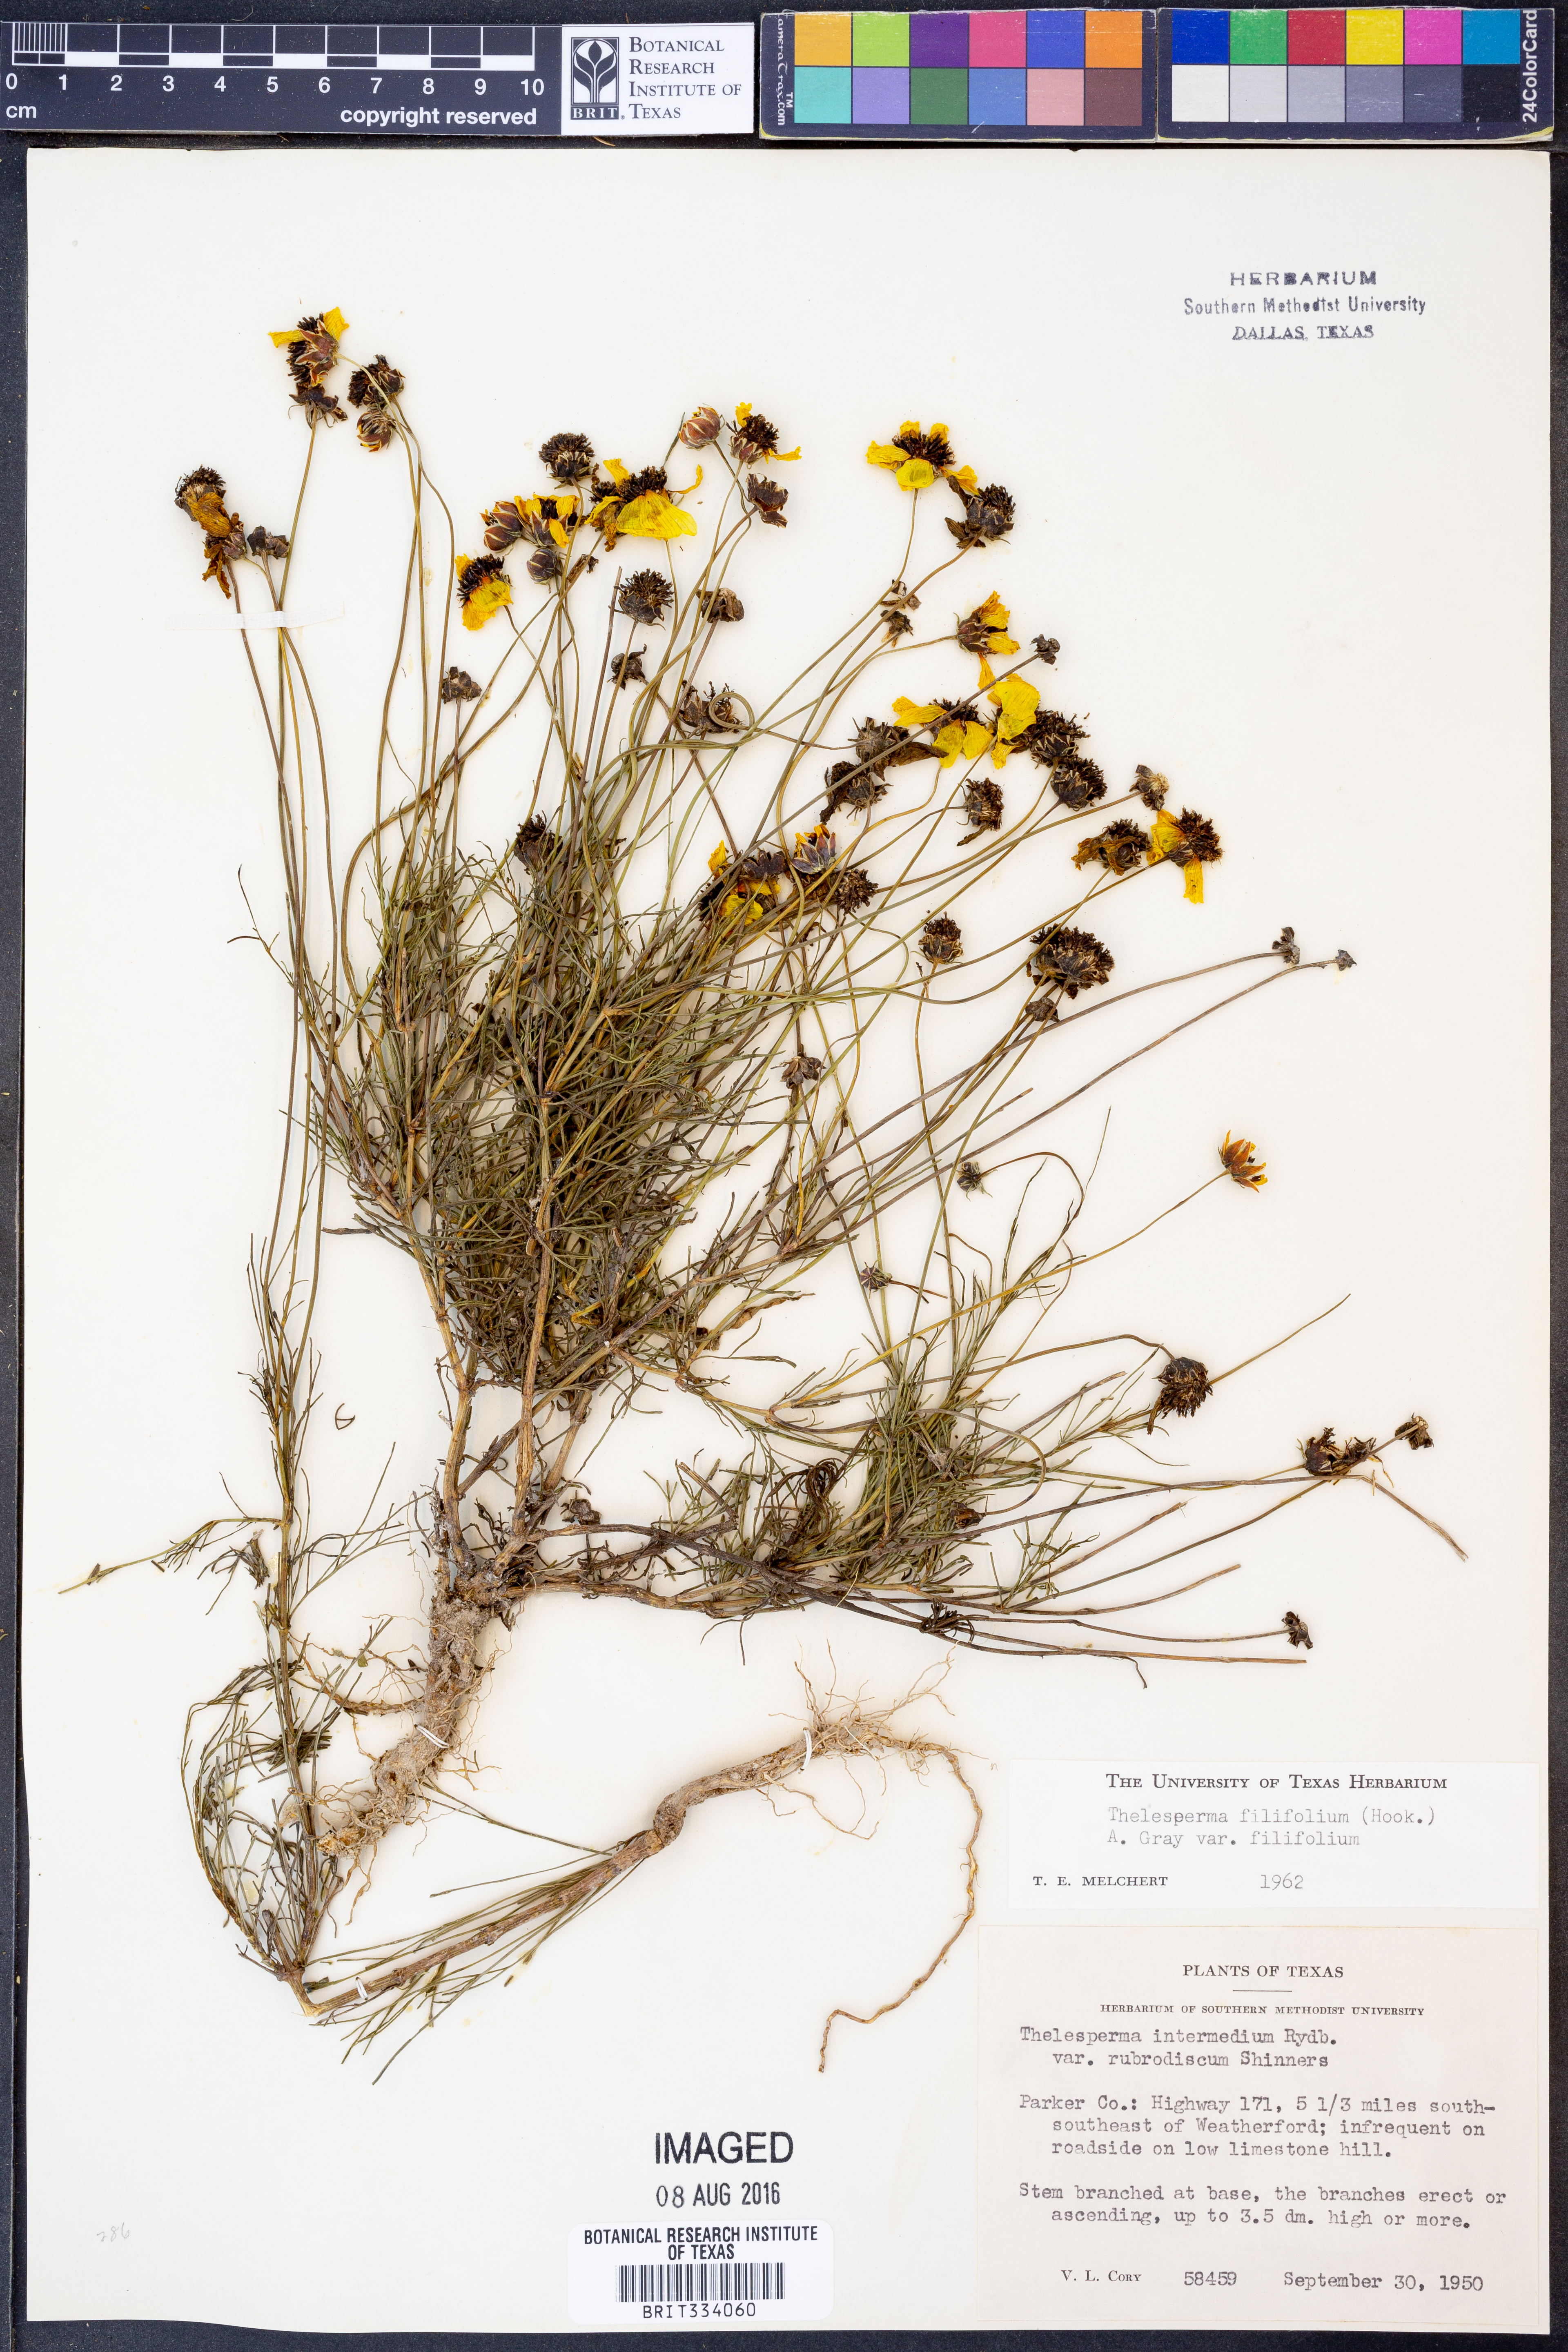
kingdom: Plantae
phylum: Tracheophyta
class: Magnoliopsida
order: Asterales
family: Asteraceae
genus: Thelesperma
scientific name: Thelesperma filifolium
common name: Stiff greenthread
